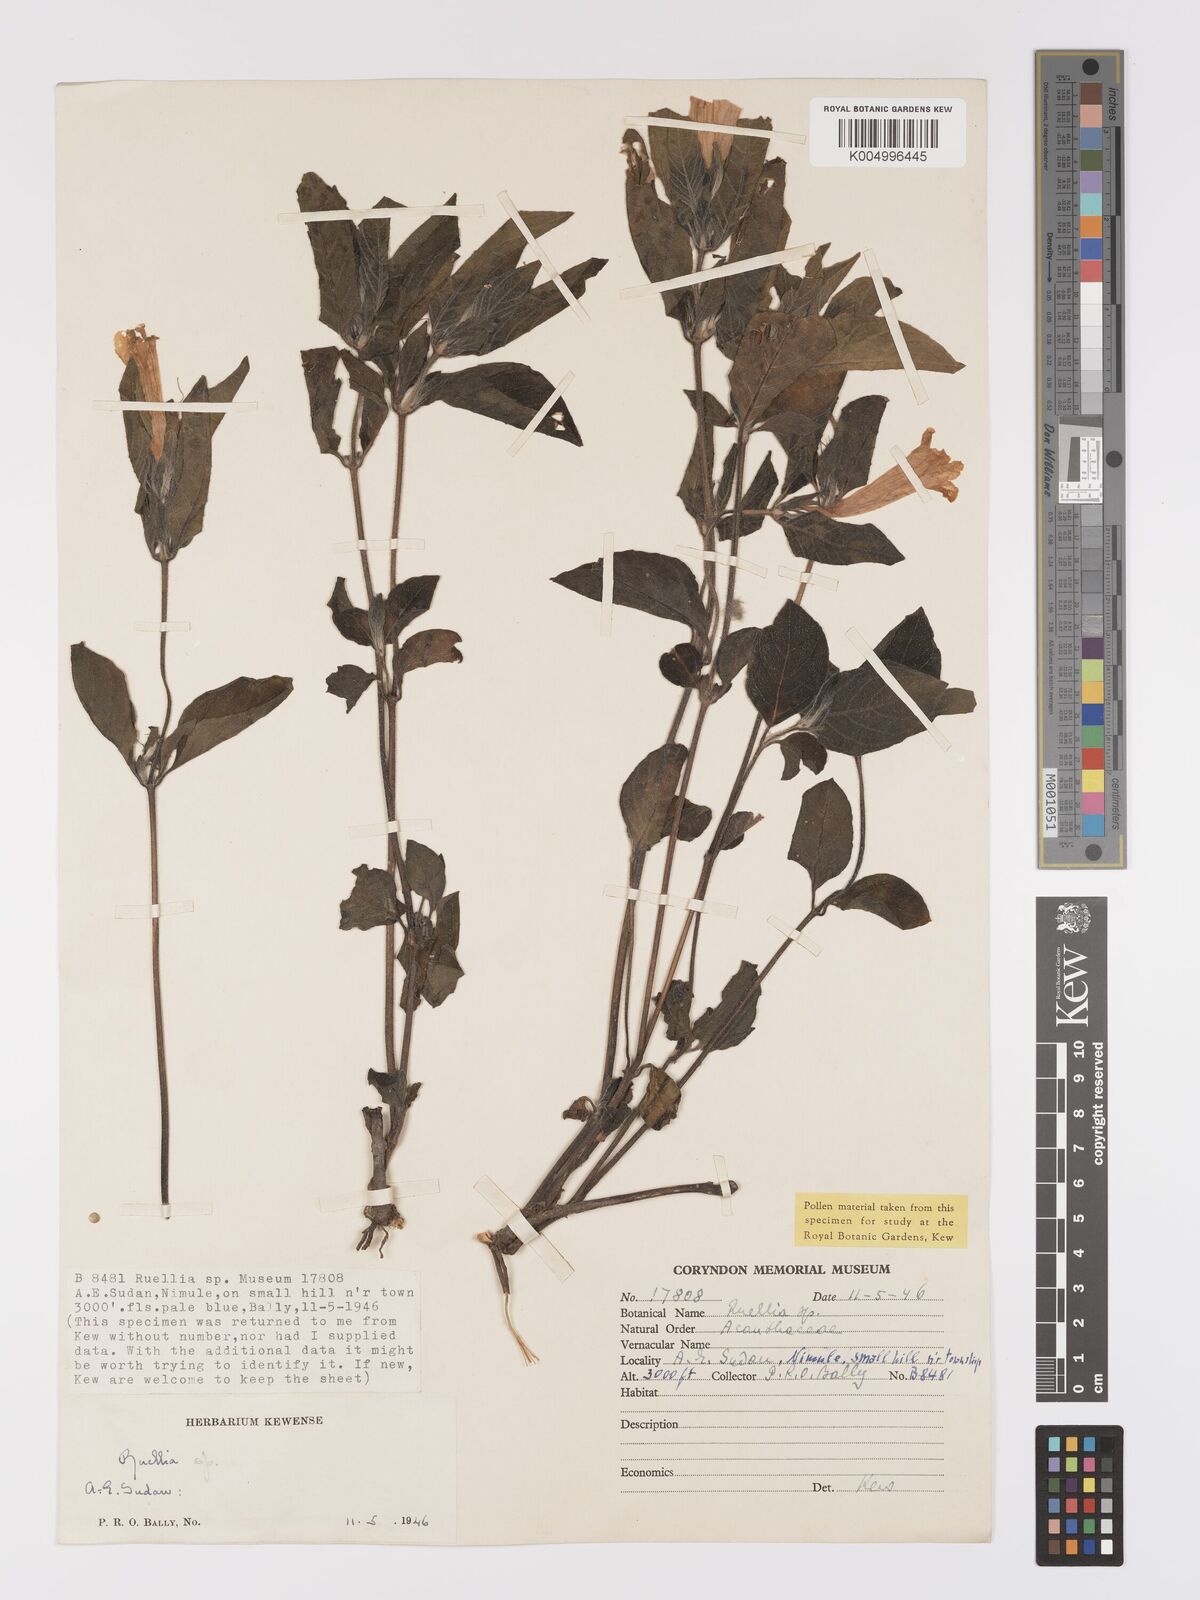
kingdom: Plantae
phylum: Tracheophyta
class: Magnoliopsida
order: Lamiales
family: Acanthaceae
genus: Ruellia
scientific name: Ruellia
